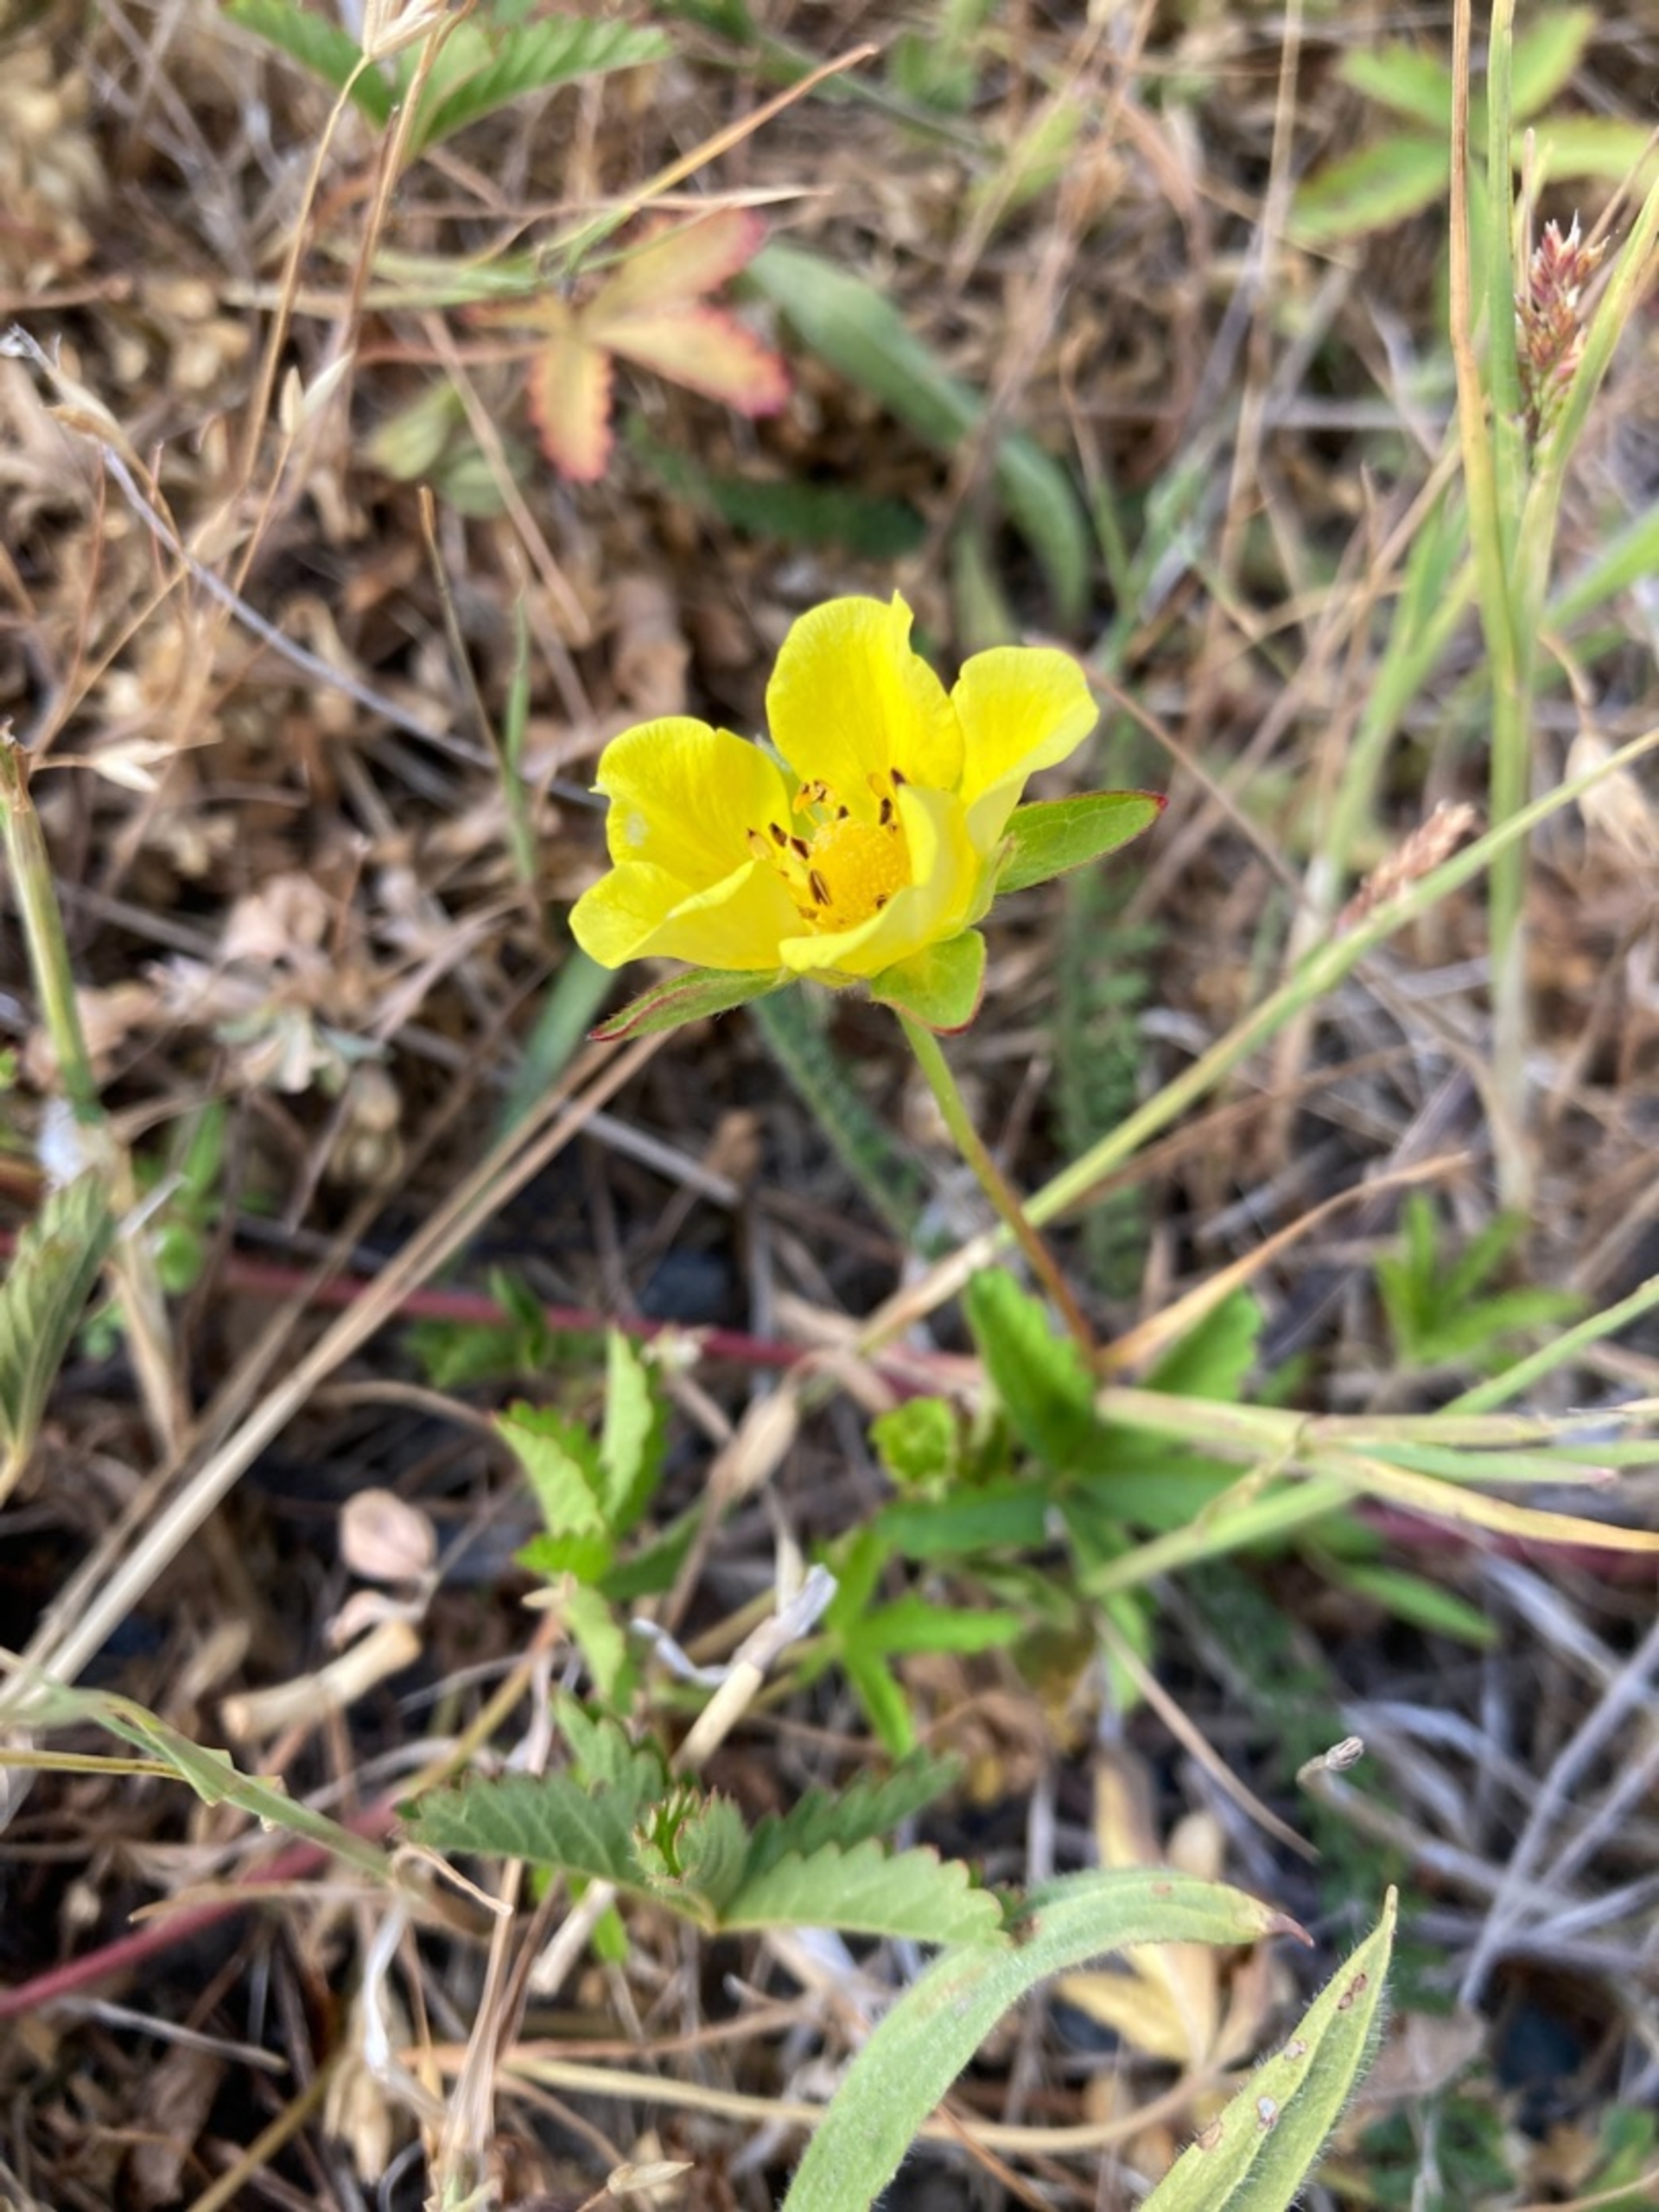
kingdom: Plantae
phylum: Tracheophyta
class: Magnoliopsida
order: Rosales
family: Rosaceae
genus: Potentilla
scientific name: Potentilla reptans
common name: Krybende potentil
